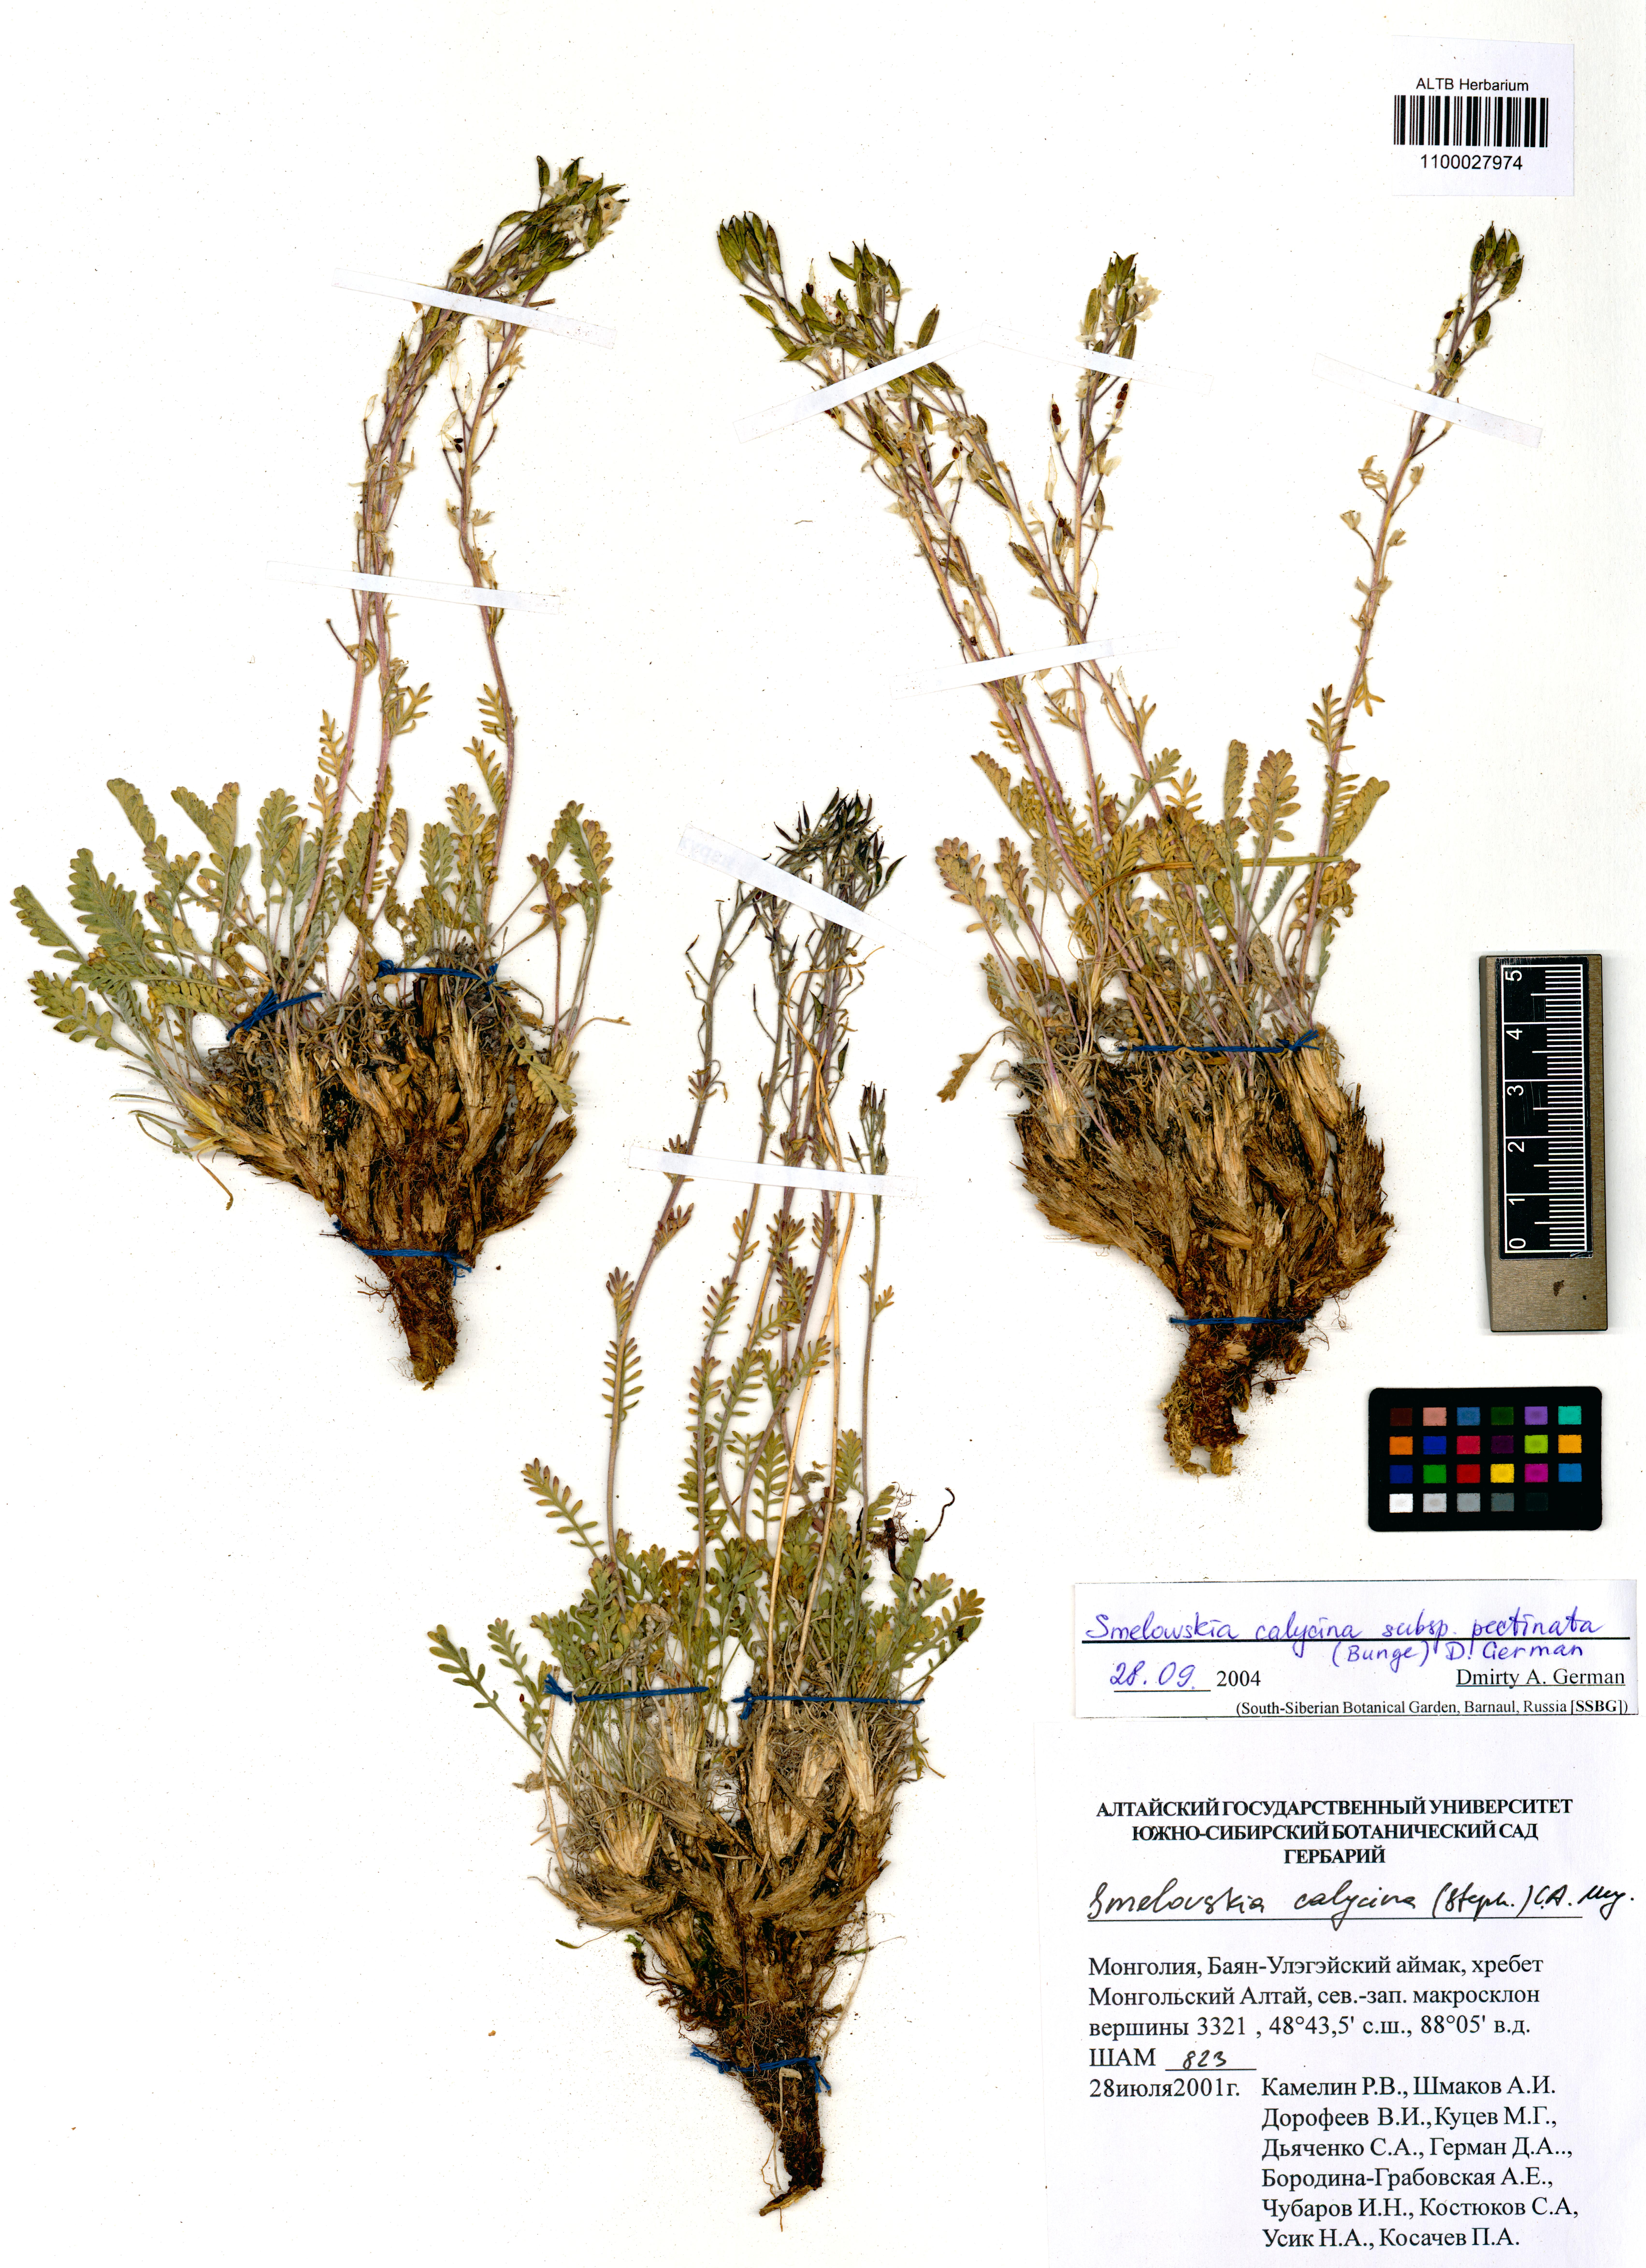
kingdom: Plantae
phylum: Tracheophyta
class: Magnoliopsida
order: Brassicales
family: Brassicaceae
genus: Smelowskia
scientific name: Smelowskia calycina
